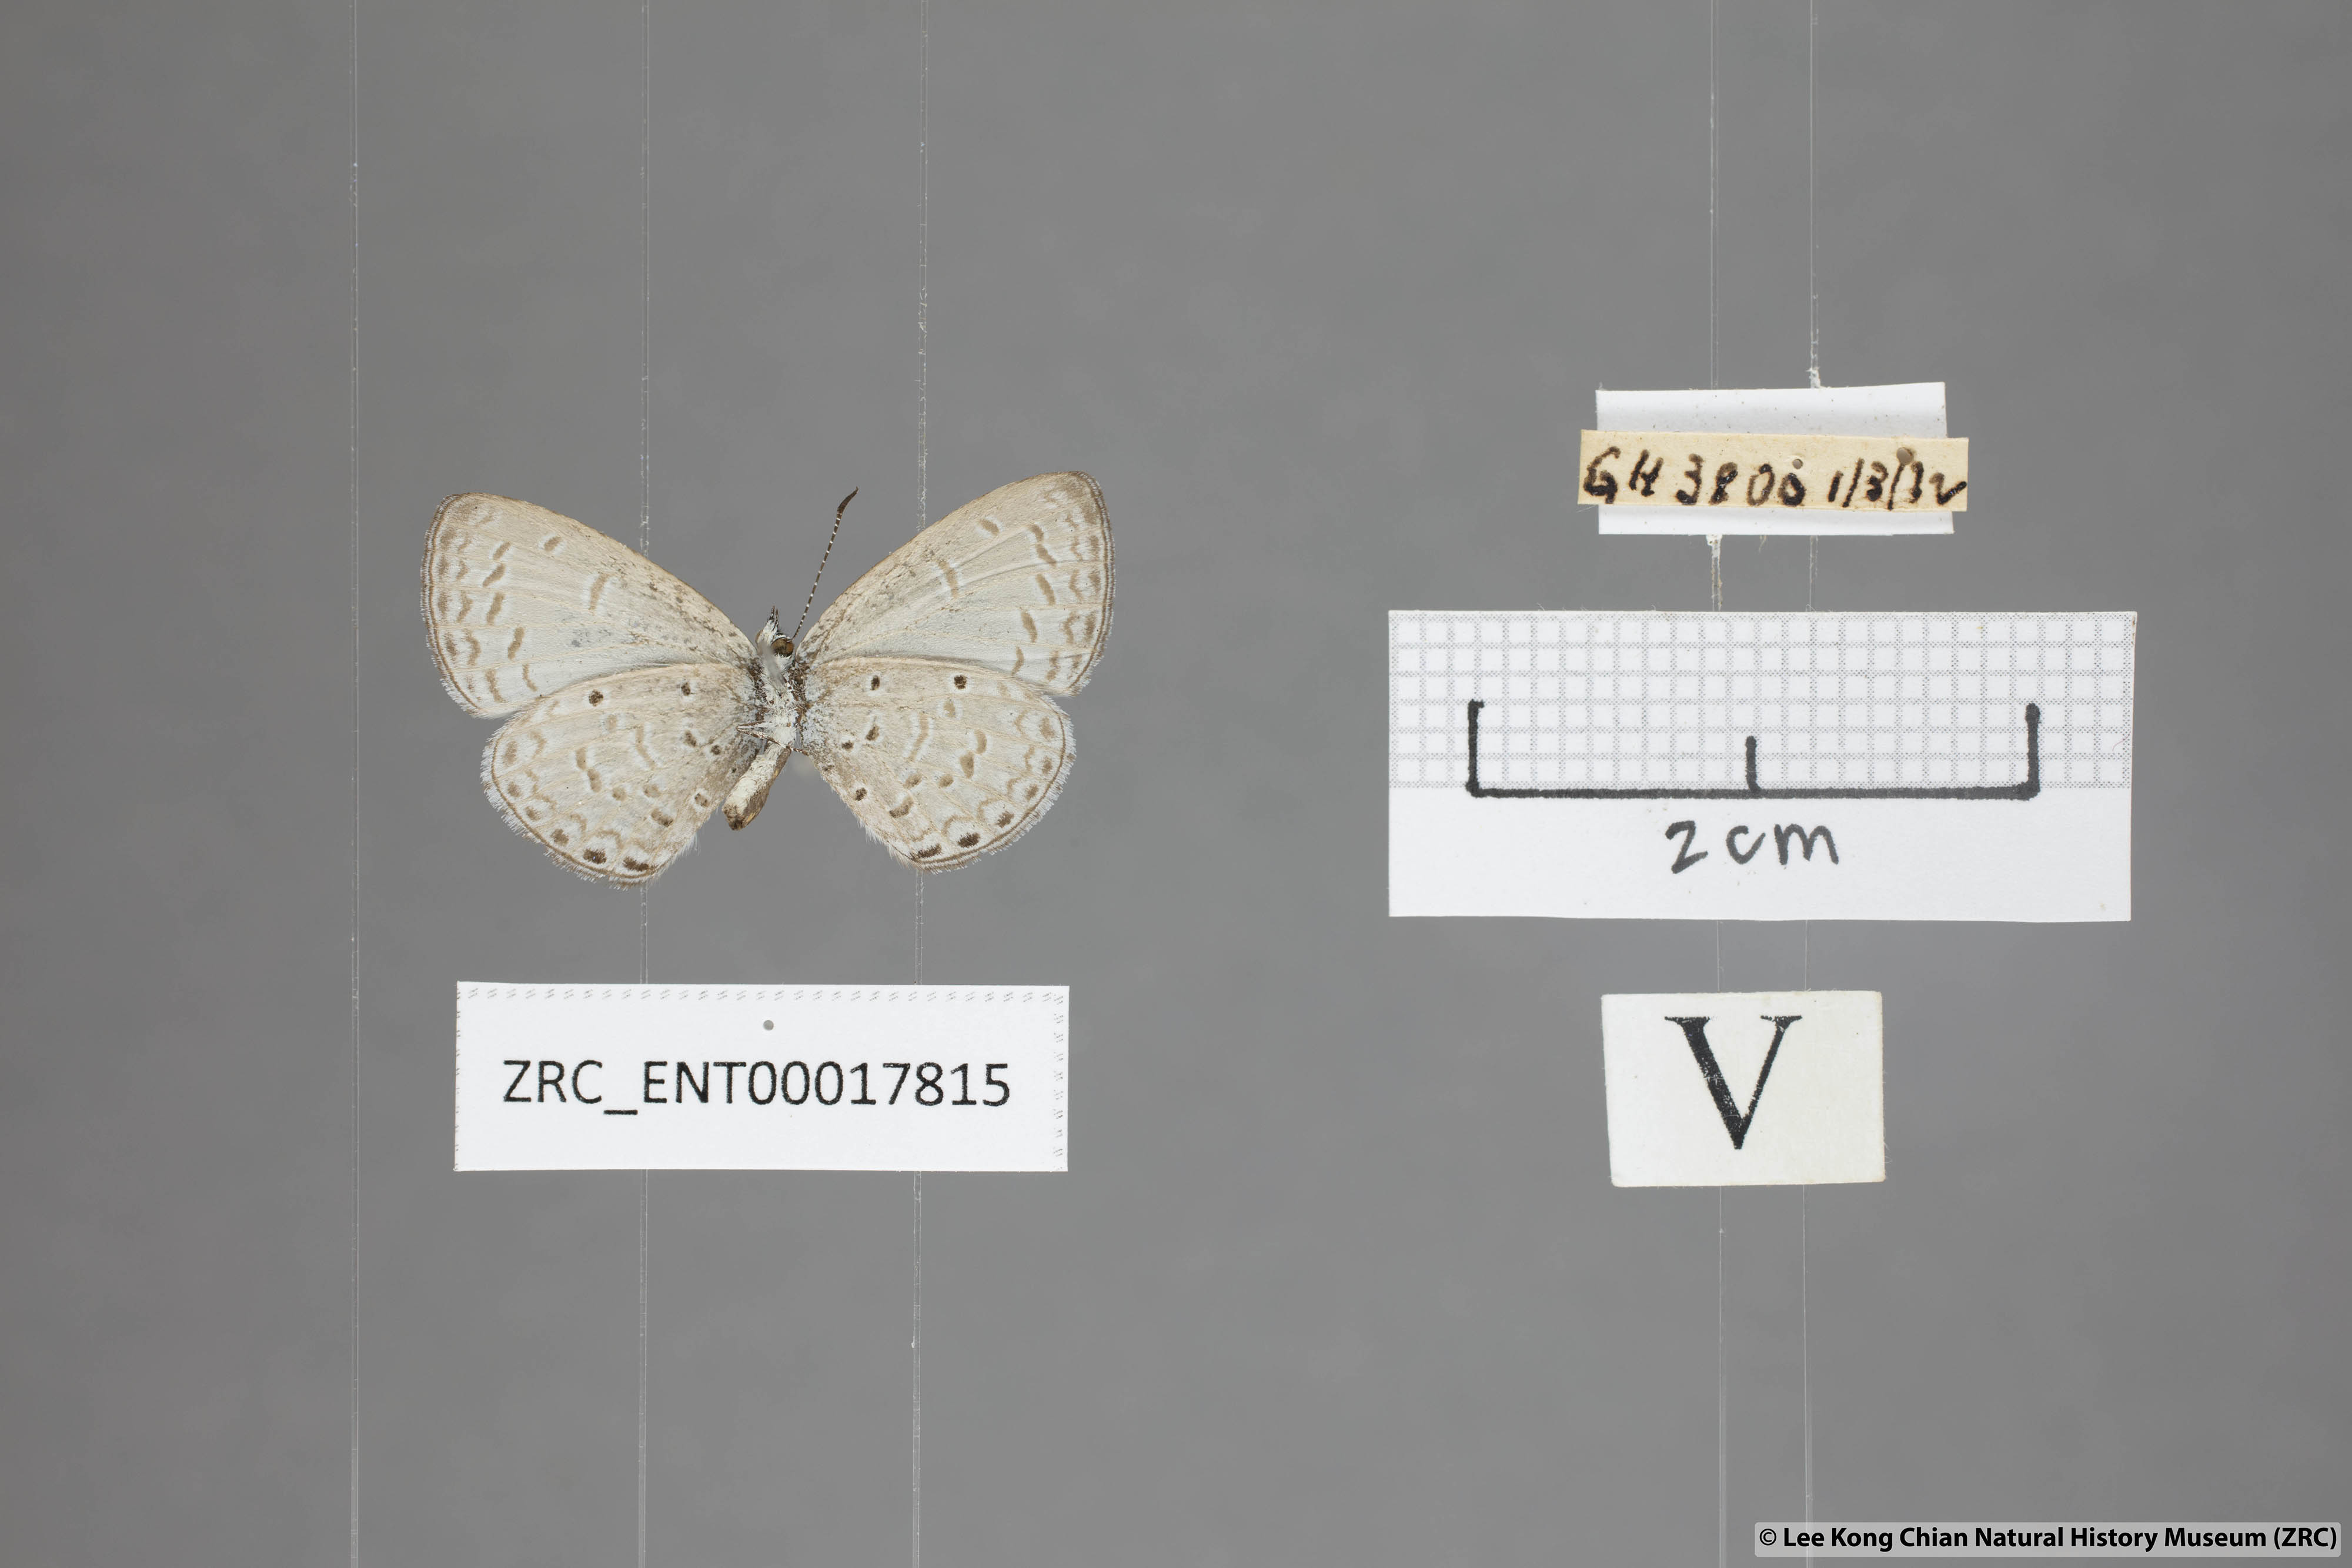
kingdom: Animalia
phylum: Arthropoda
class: Insecta
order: Lepidoptera
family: Lycaenidae
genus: Monodontides
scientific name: Monodontides
